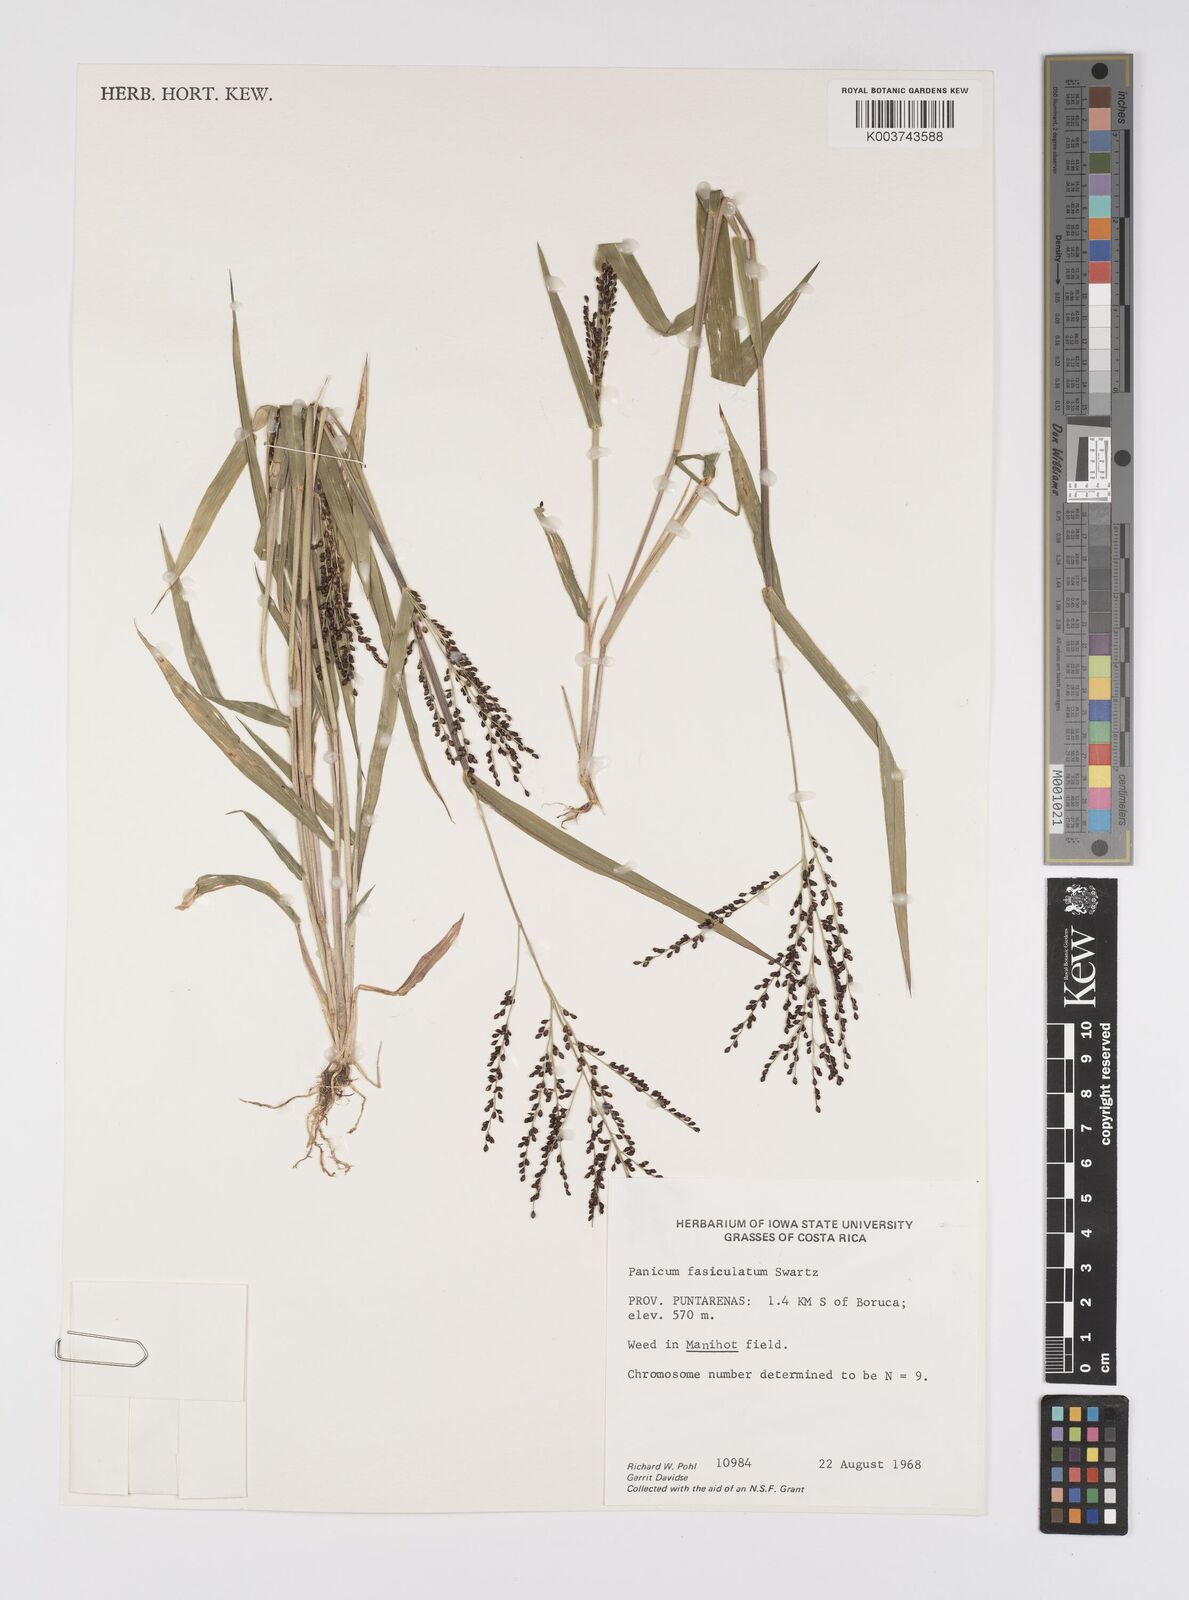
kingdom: Plantae
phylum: Tracheophyta
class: Liliopsida
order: Poales
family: Poaceae
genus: Urochloa
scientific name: Urochloa fusca
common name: Browntop signal grass
